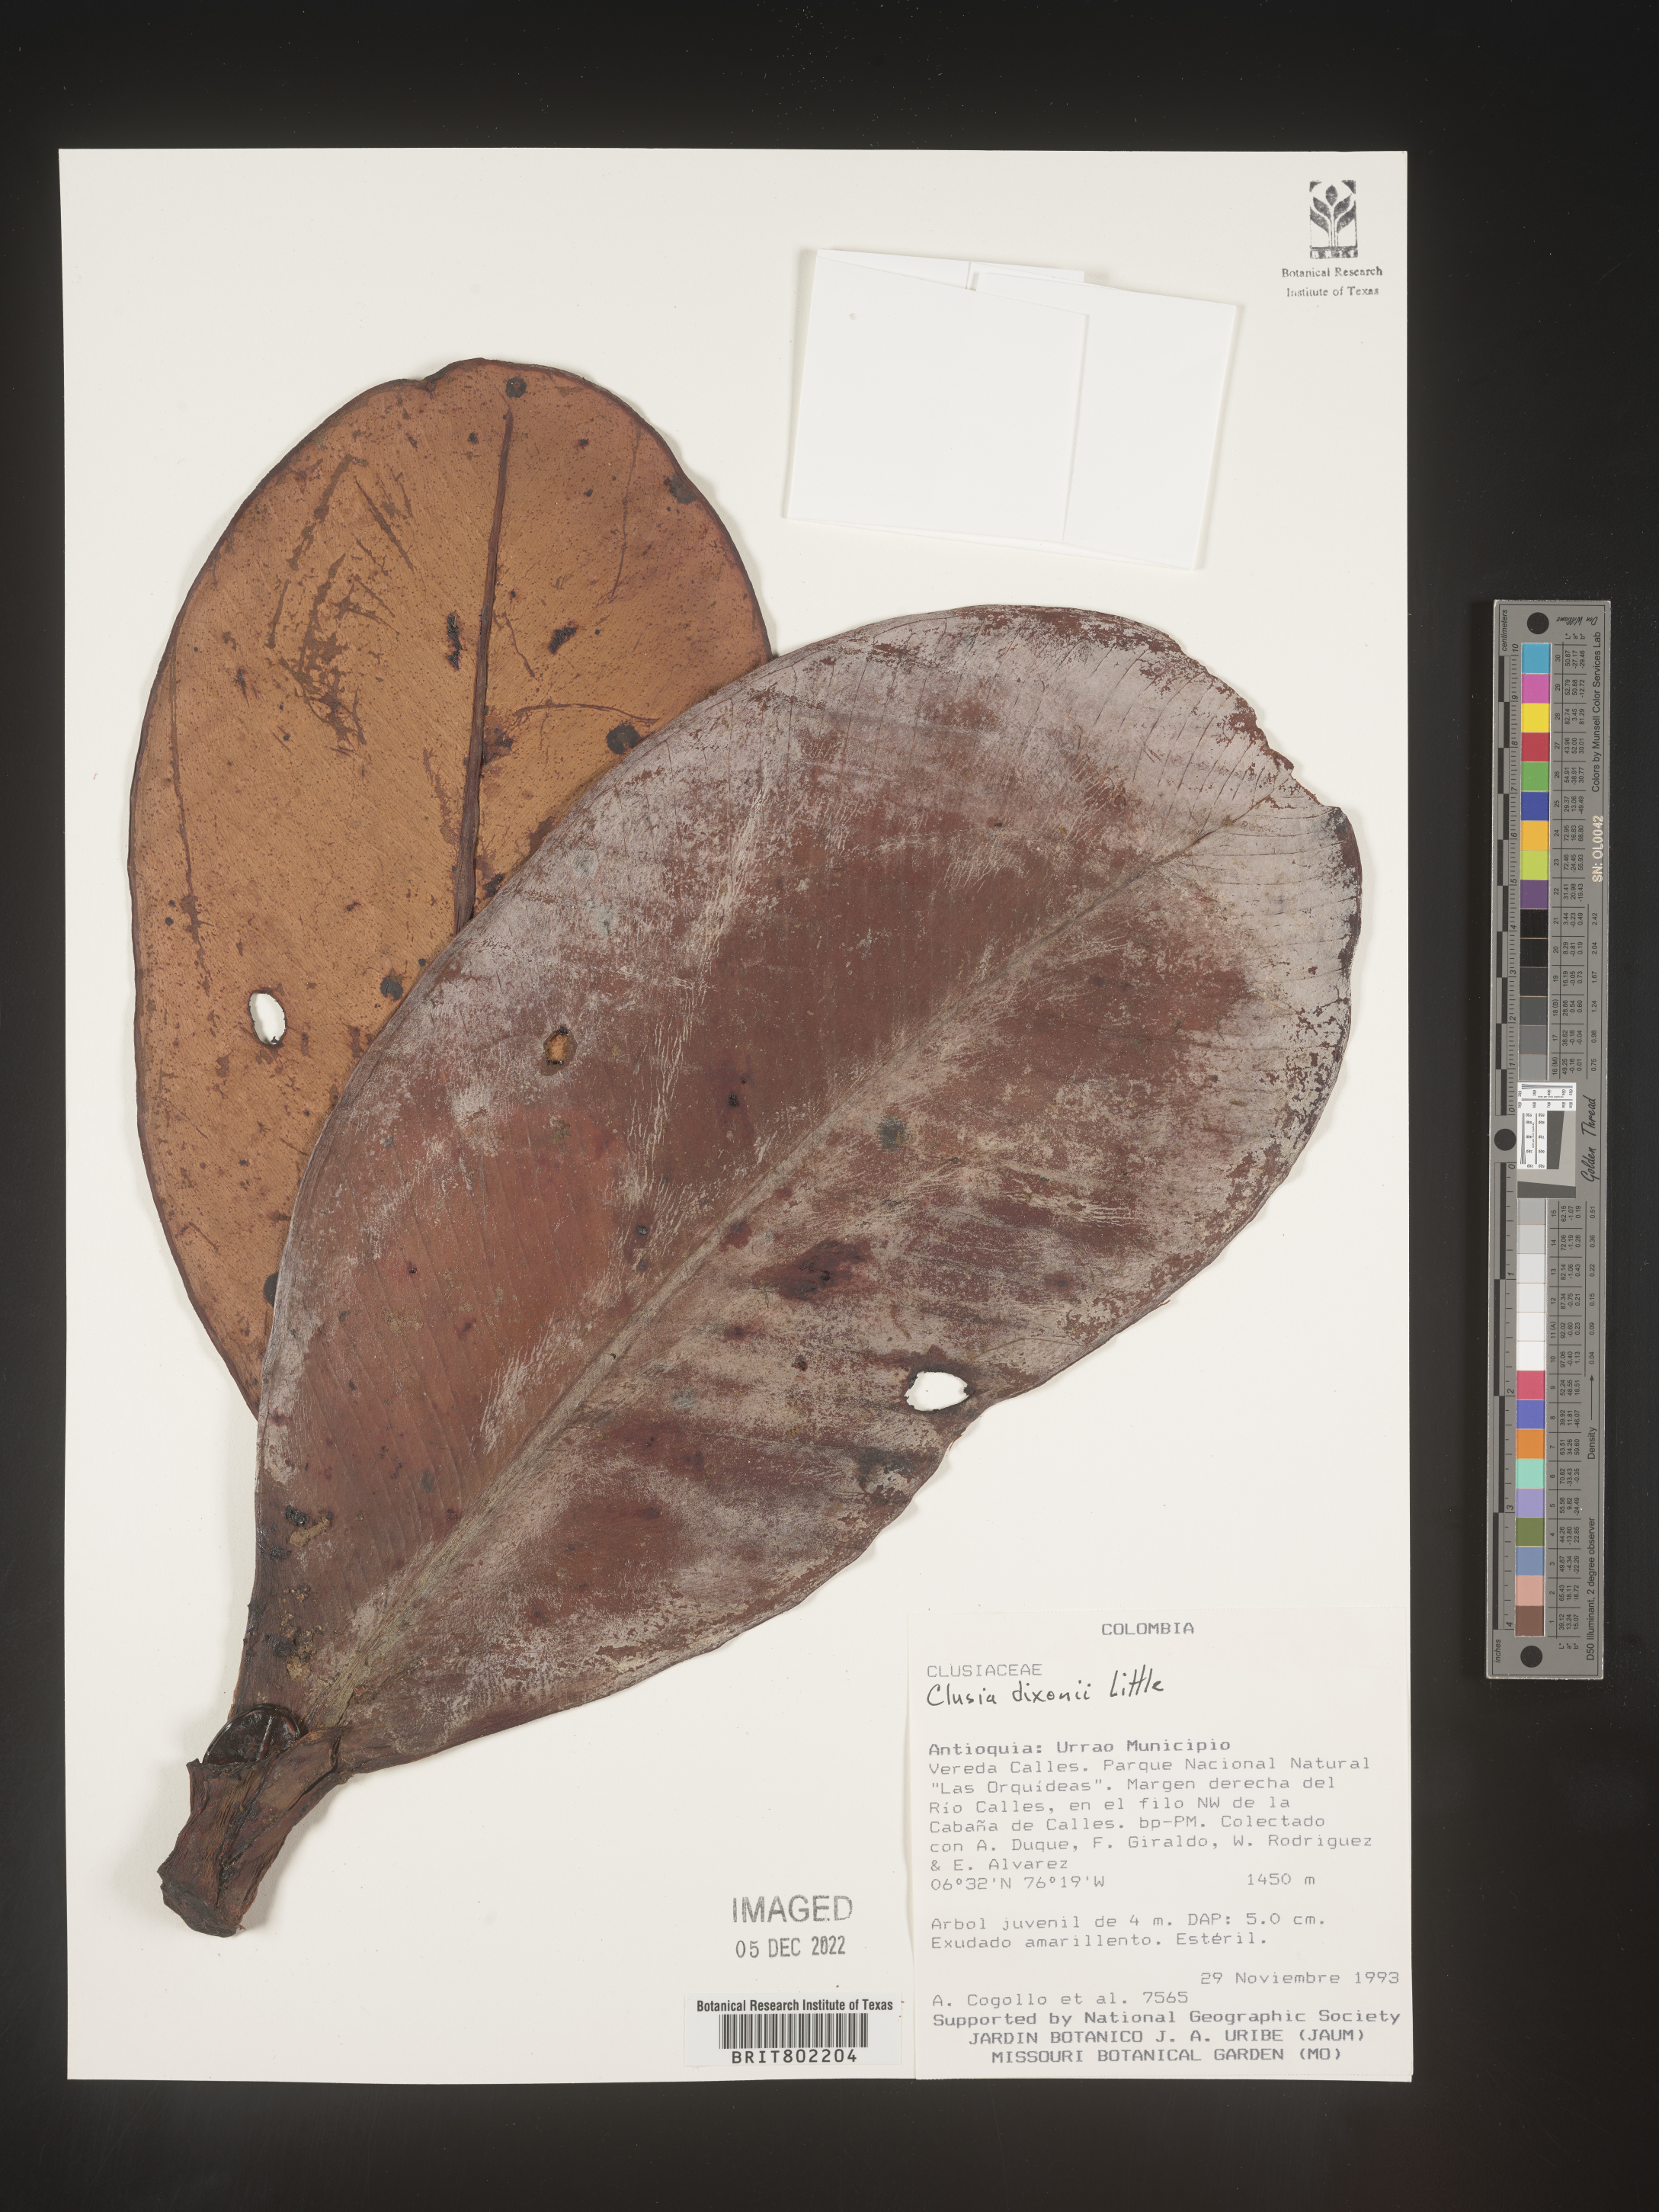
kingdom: Plantae
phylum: Tracheophyta
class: Magnoliopsida
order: Malpighiales
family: Clusiaceae
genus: Clusia
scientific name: Clusia
